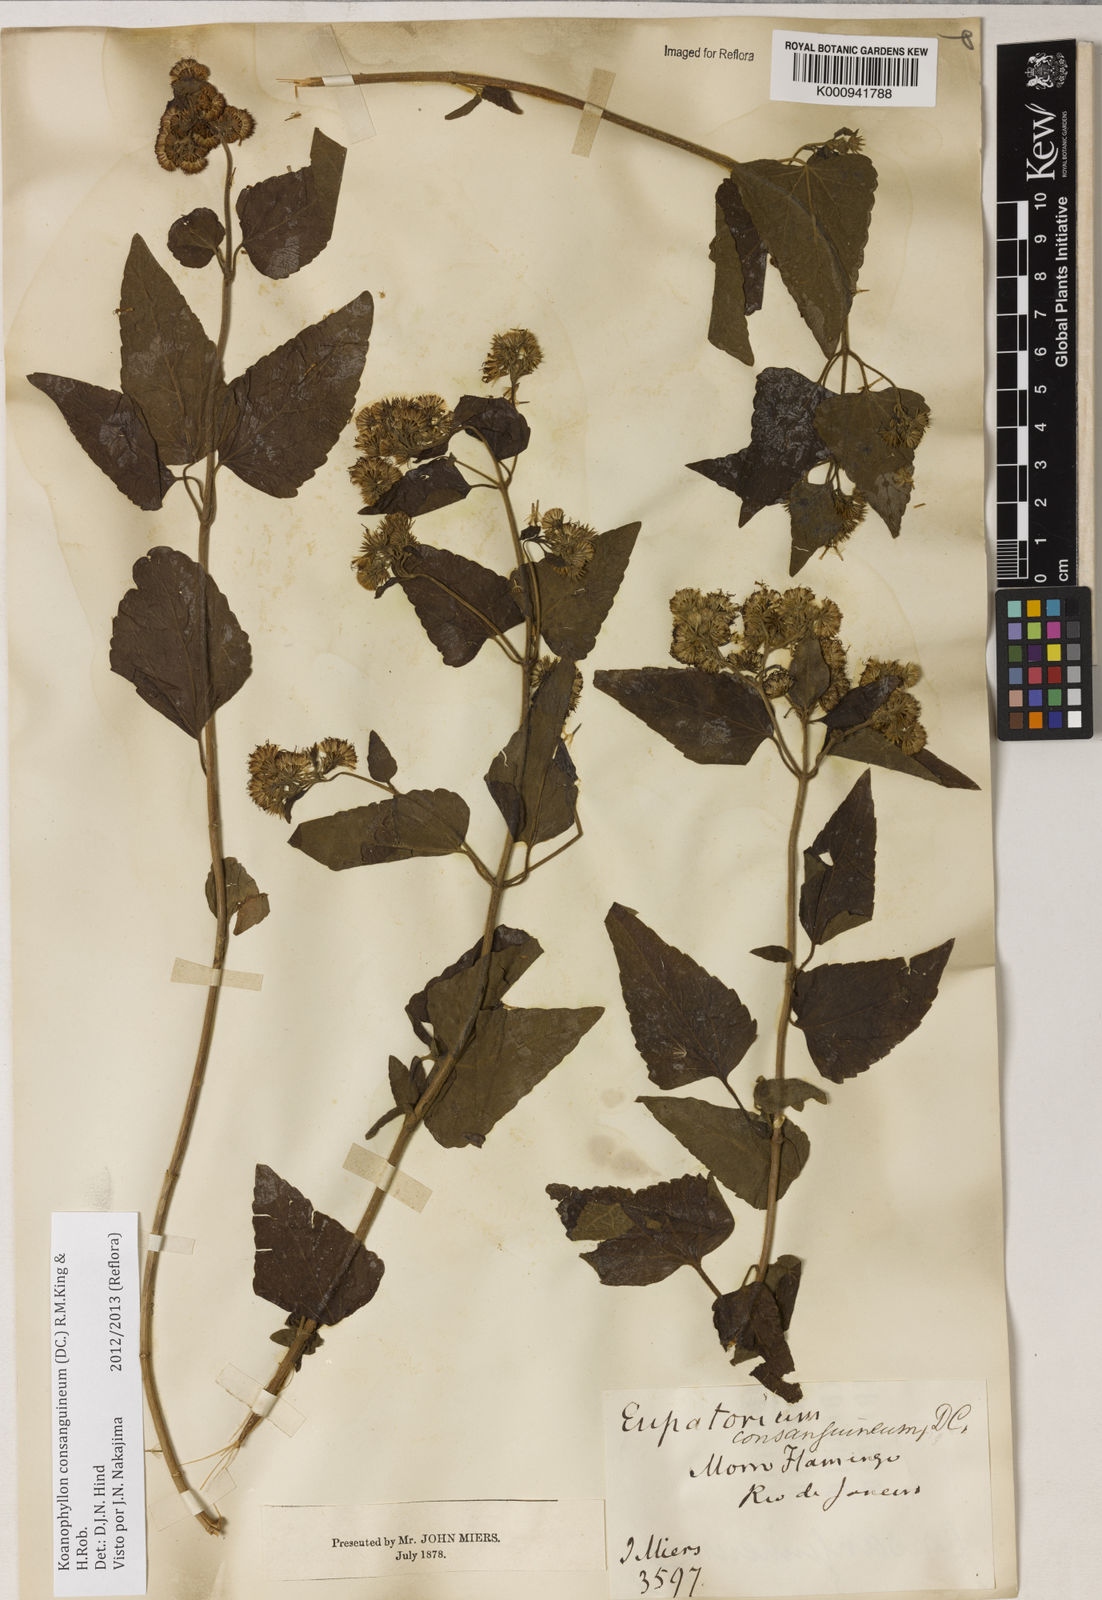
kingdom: Plantae
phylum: Tracheophyta
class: Magnoliopsida
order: Asterales
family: Asteraceae
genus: Koanophyllon
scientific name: Koanophyllon consanguineum
